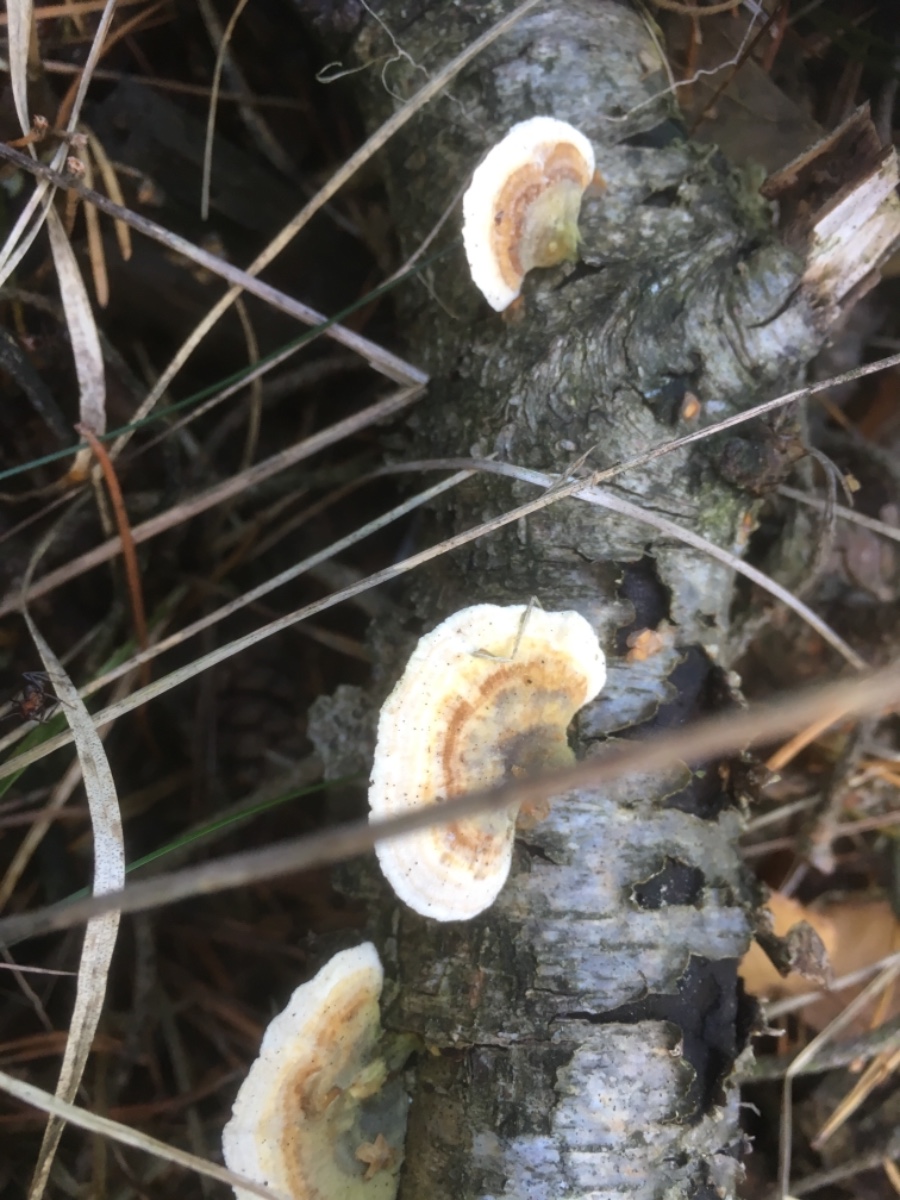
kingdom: Fungi
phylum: Basidiomycota
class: Agaricomycetes
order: Polyporales
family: Polyporaceae
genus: Trametes
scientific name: Trametes versicolor
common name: broget læderporesvamp
